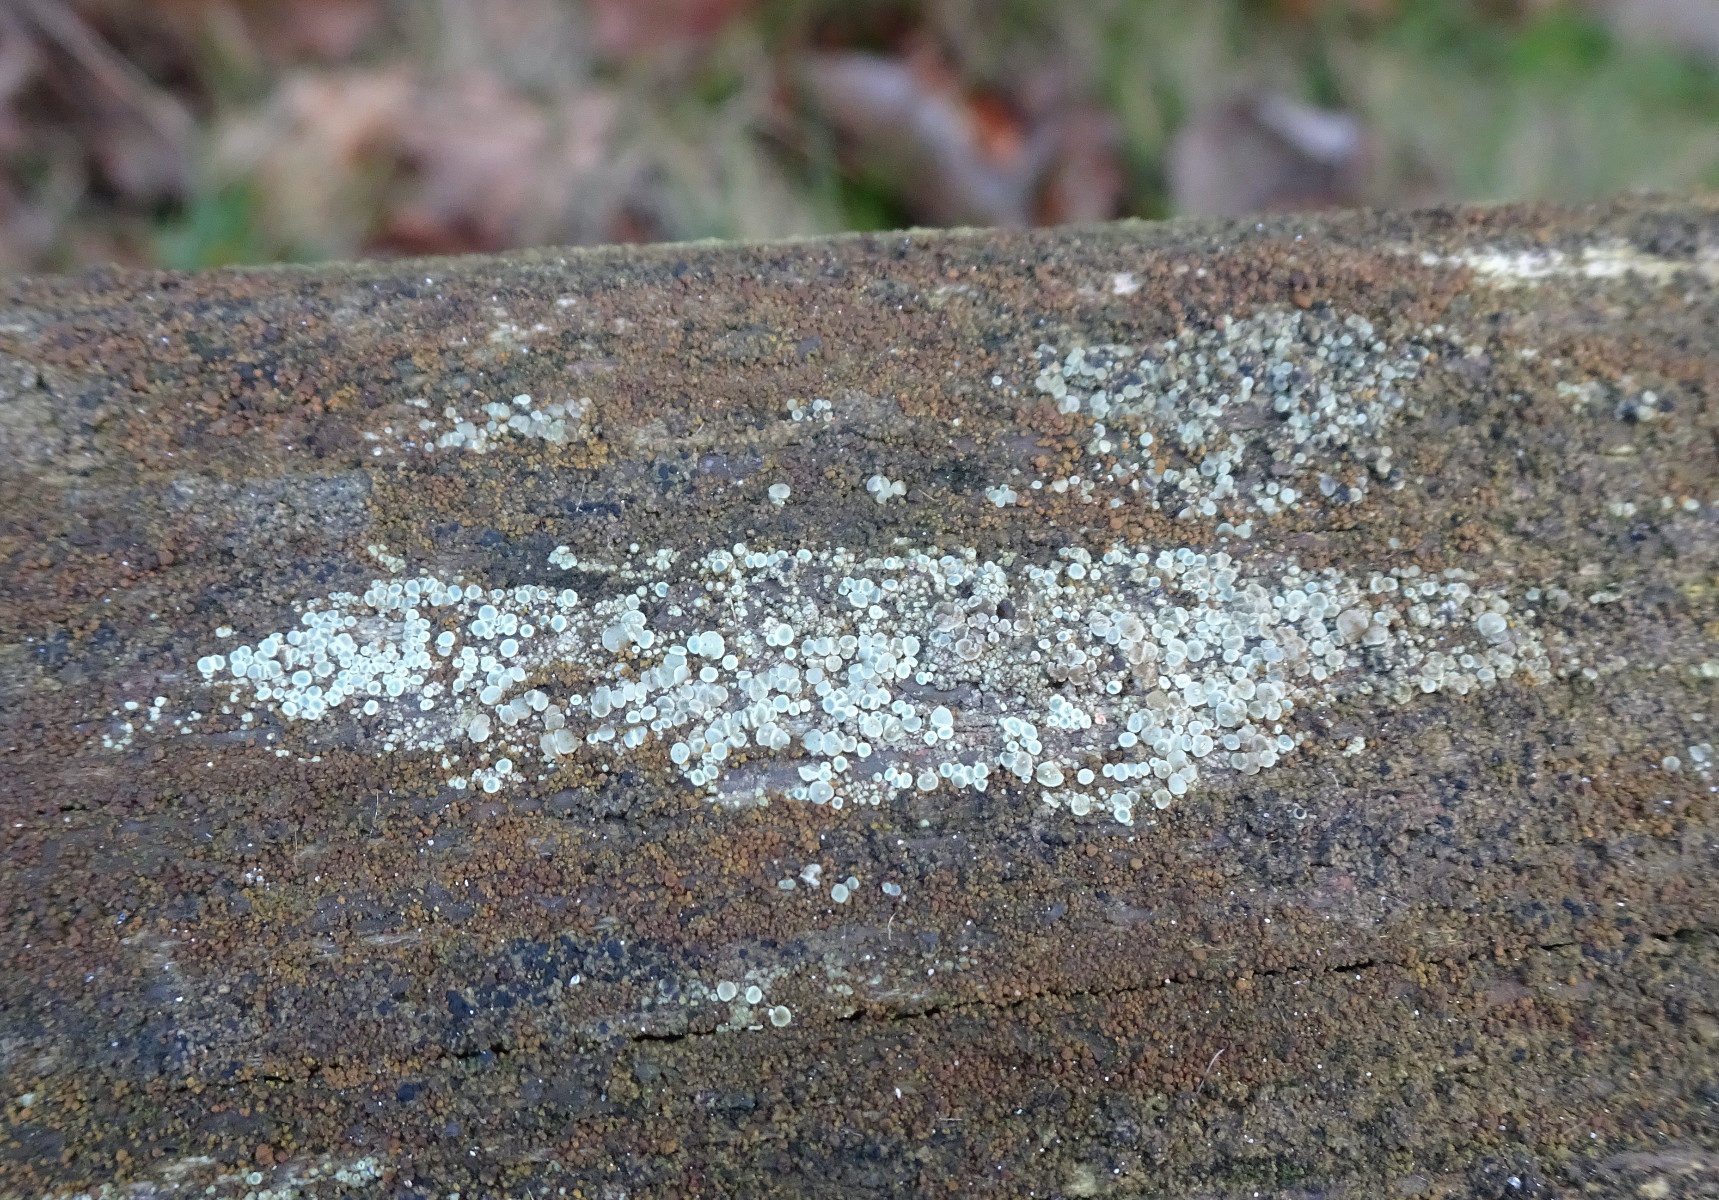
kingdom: Fungi
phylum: Ascomycota
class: Lecanoromycetes
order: Lecanorales
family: Lecanoraceae
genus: Lecanora
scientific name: Lecanora polytropa
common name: bleggrøn kantskivelav
